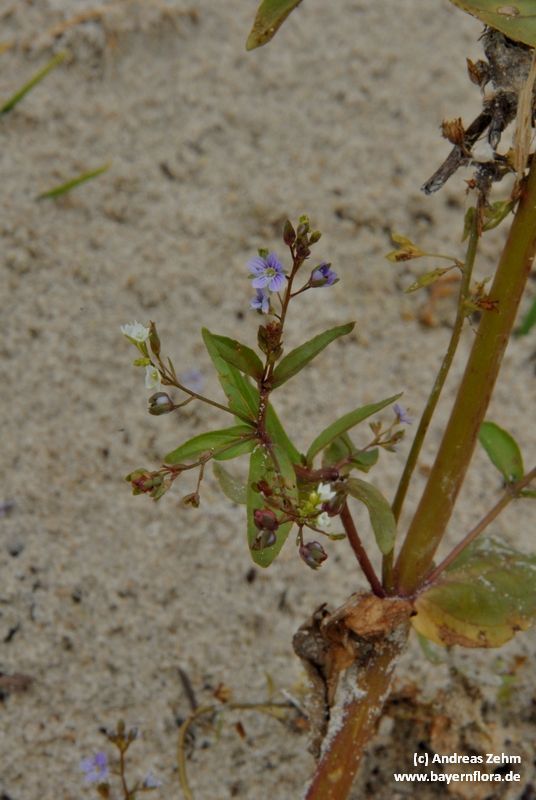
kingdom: Plantae
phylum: Tracheophyta
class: Magnoliopsida
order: Lamiales
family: Plantaginaceae
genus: Veronica
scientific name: Veronica anagallis-aquatica
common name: Water speedwell
